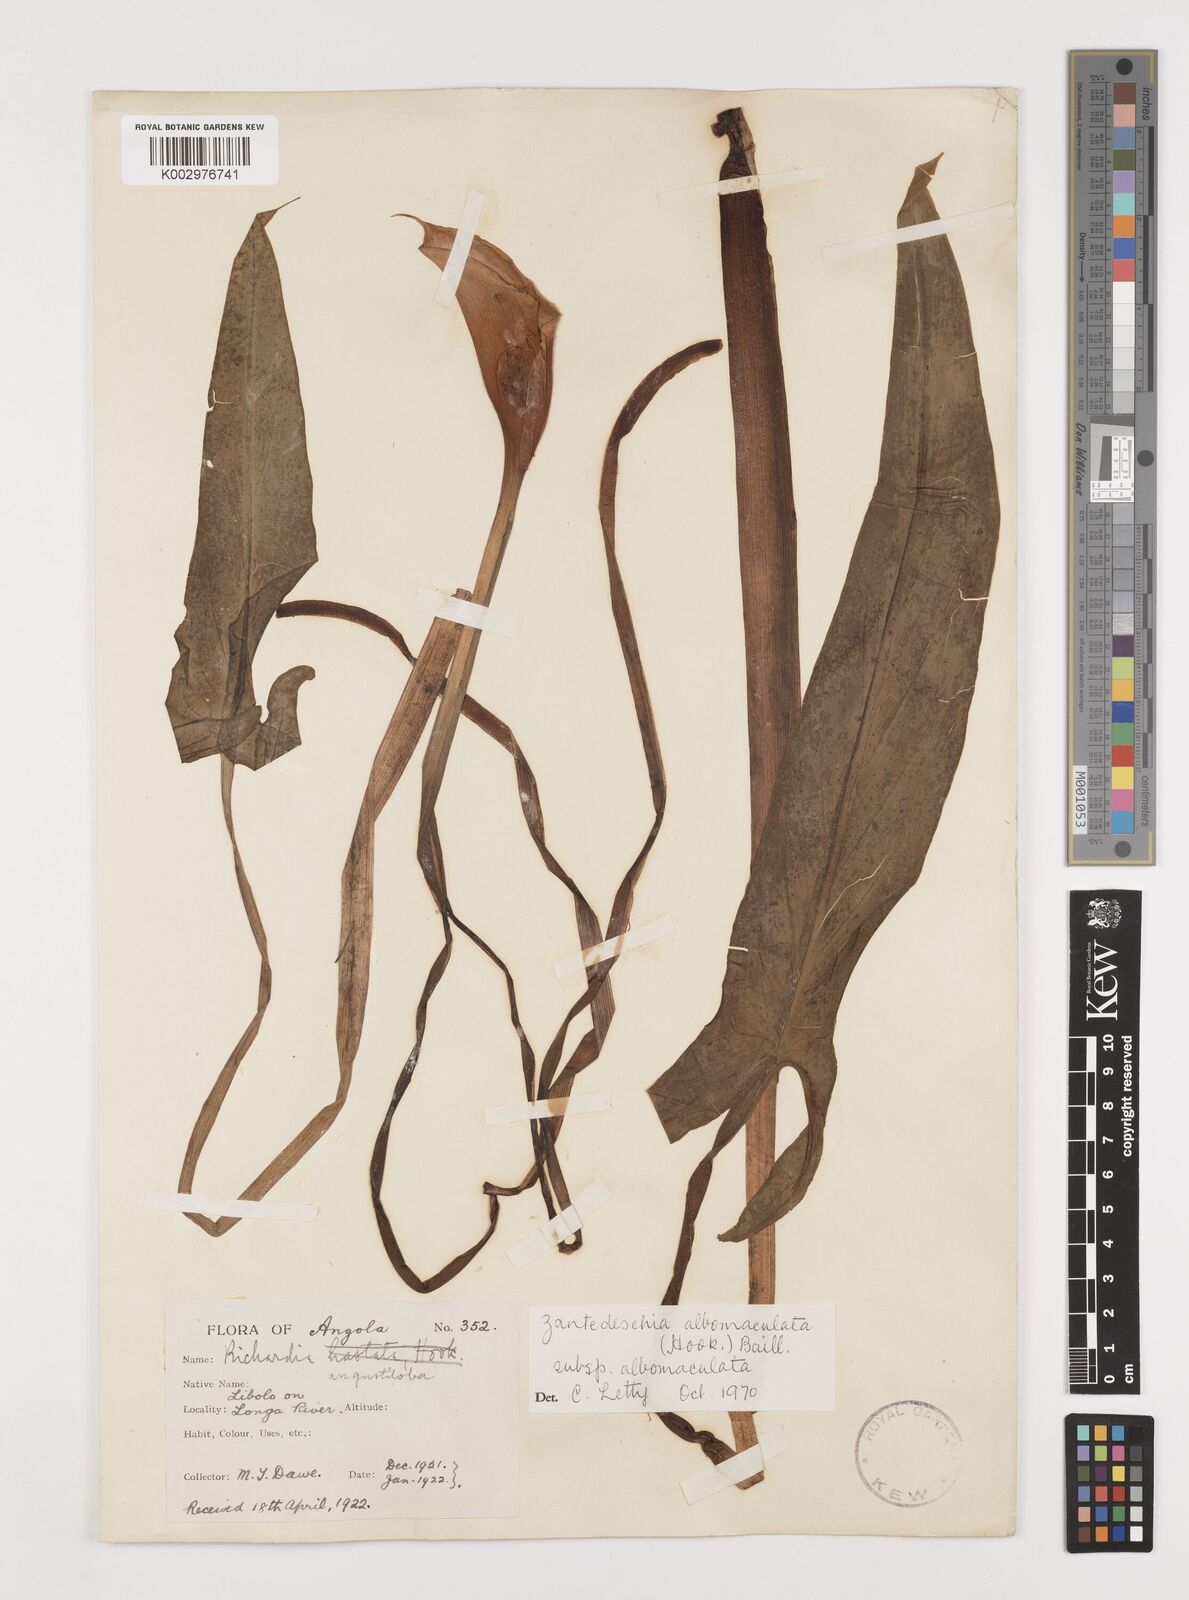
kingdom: Plantae
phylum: Tracheophyta
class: Liliopsida
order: Alismatales
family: Araceae
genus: Zantedeschia
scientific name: Zantedeschia albomaculata
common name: Spotted calla lily
